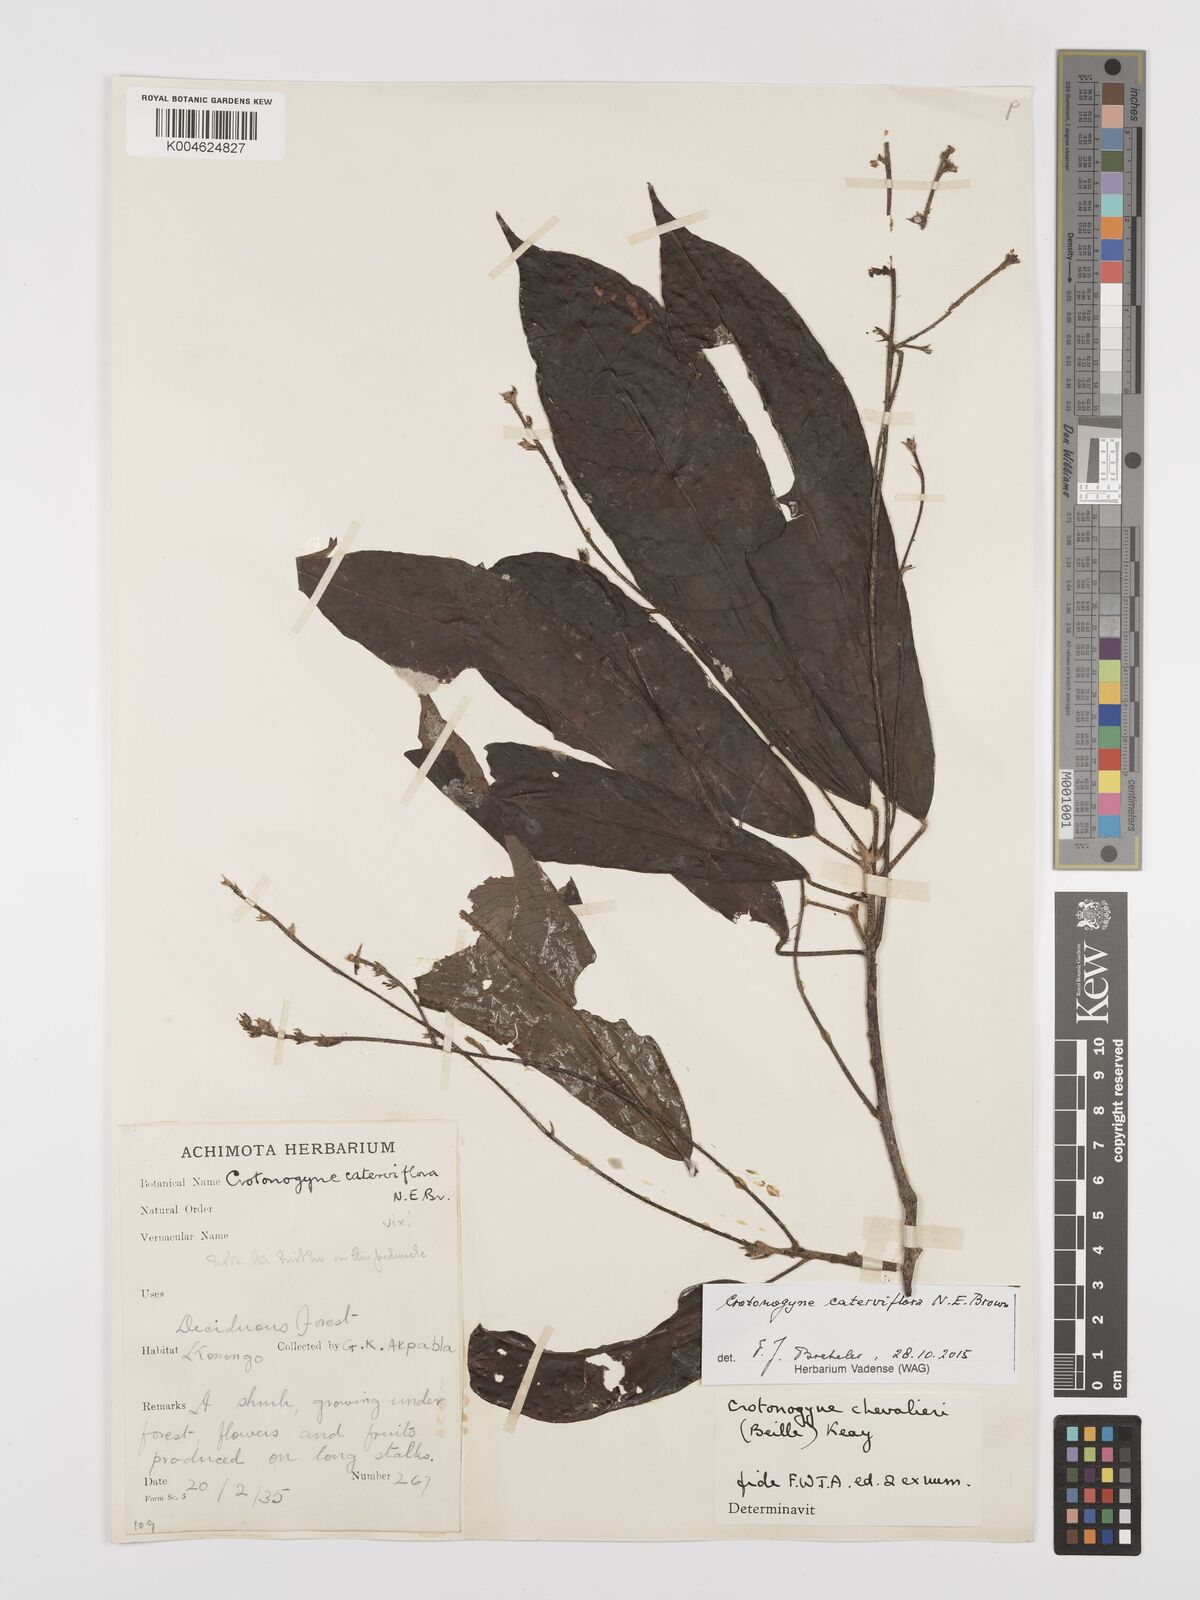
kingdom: Plantae
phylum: Tracheophyta
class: Magnoliopsida
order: Malpighiales
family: Euphorbiaceae
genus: Crotonogyne
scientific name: Crotonogyne caterviflora
